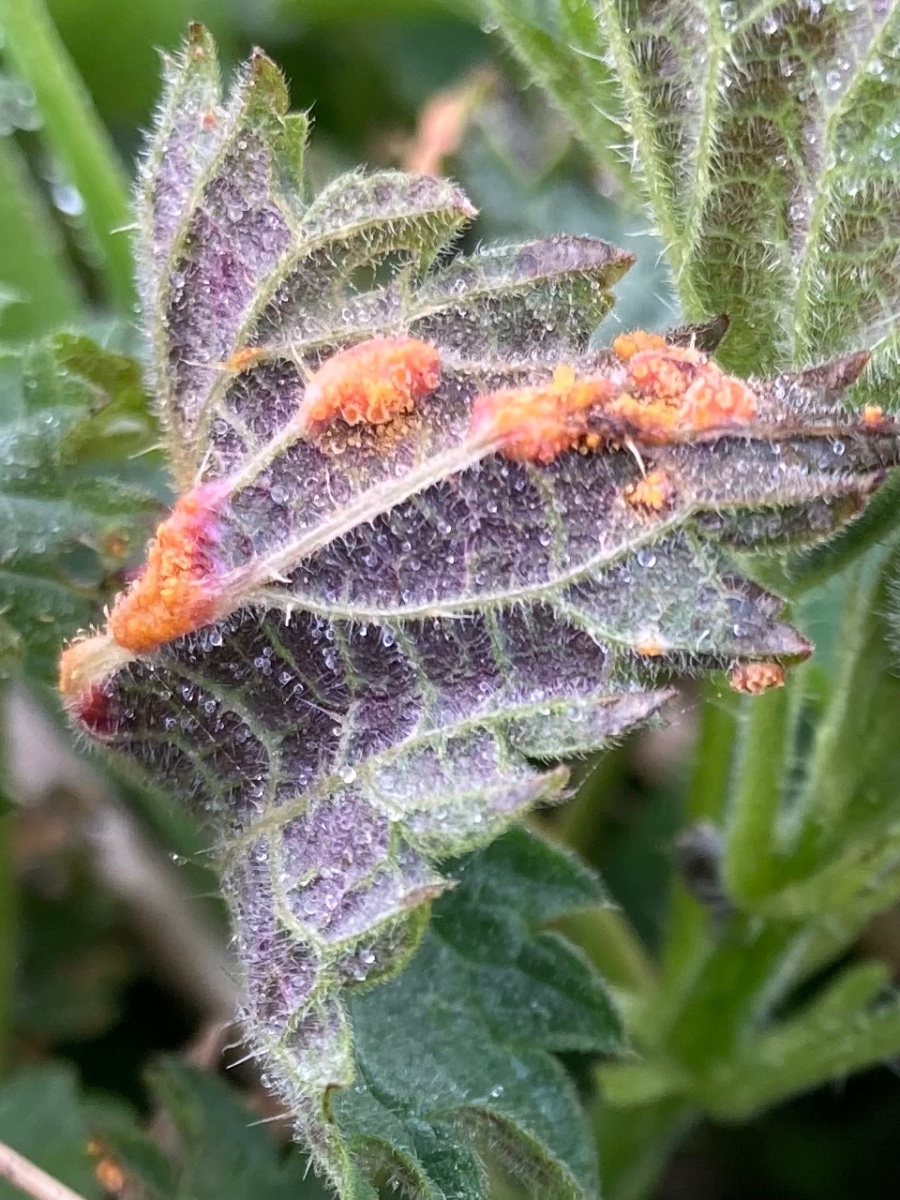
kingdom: Fungi
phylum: Basidiomycota
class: Pucciniomycetes
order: Pucciniales
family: Pucciniaceae
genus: Puccinia
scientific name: Puccinia urticata
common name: nældegalle-tvecellerust
